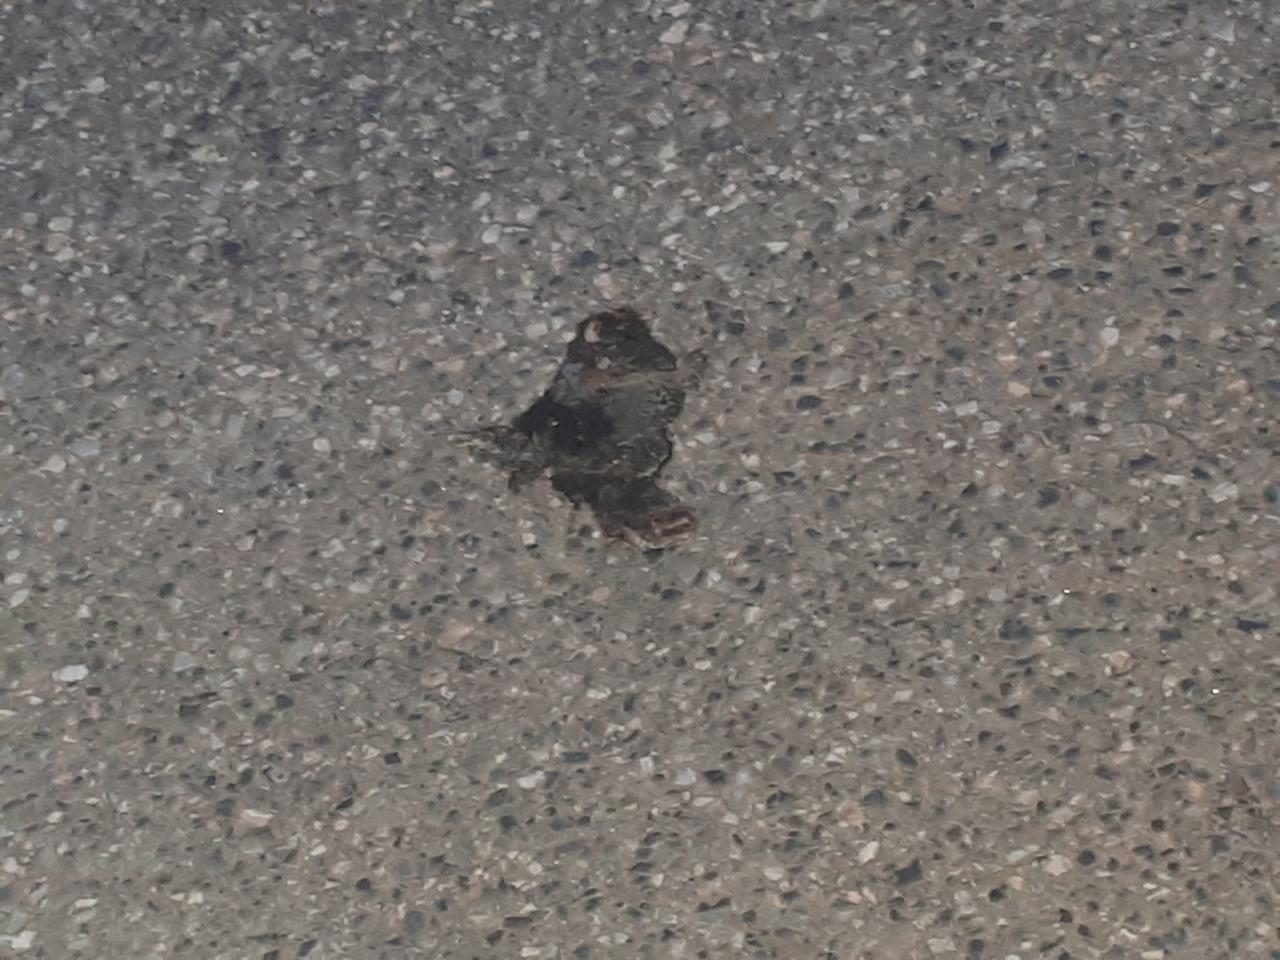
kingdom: Animalia
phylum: Chordata
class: Amphibia
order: Anura
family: Bufonidae
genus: Bufotes
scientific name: Bufotes viridis
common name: European green toad
